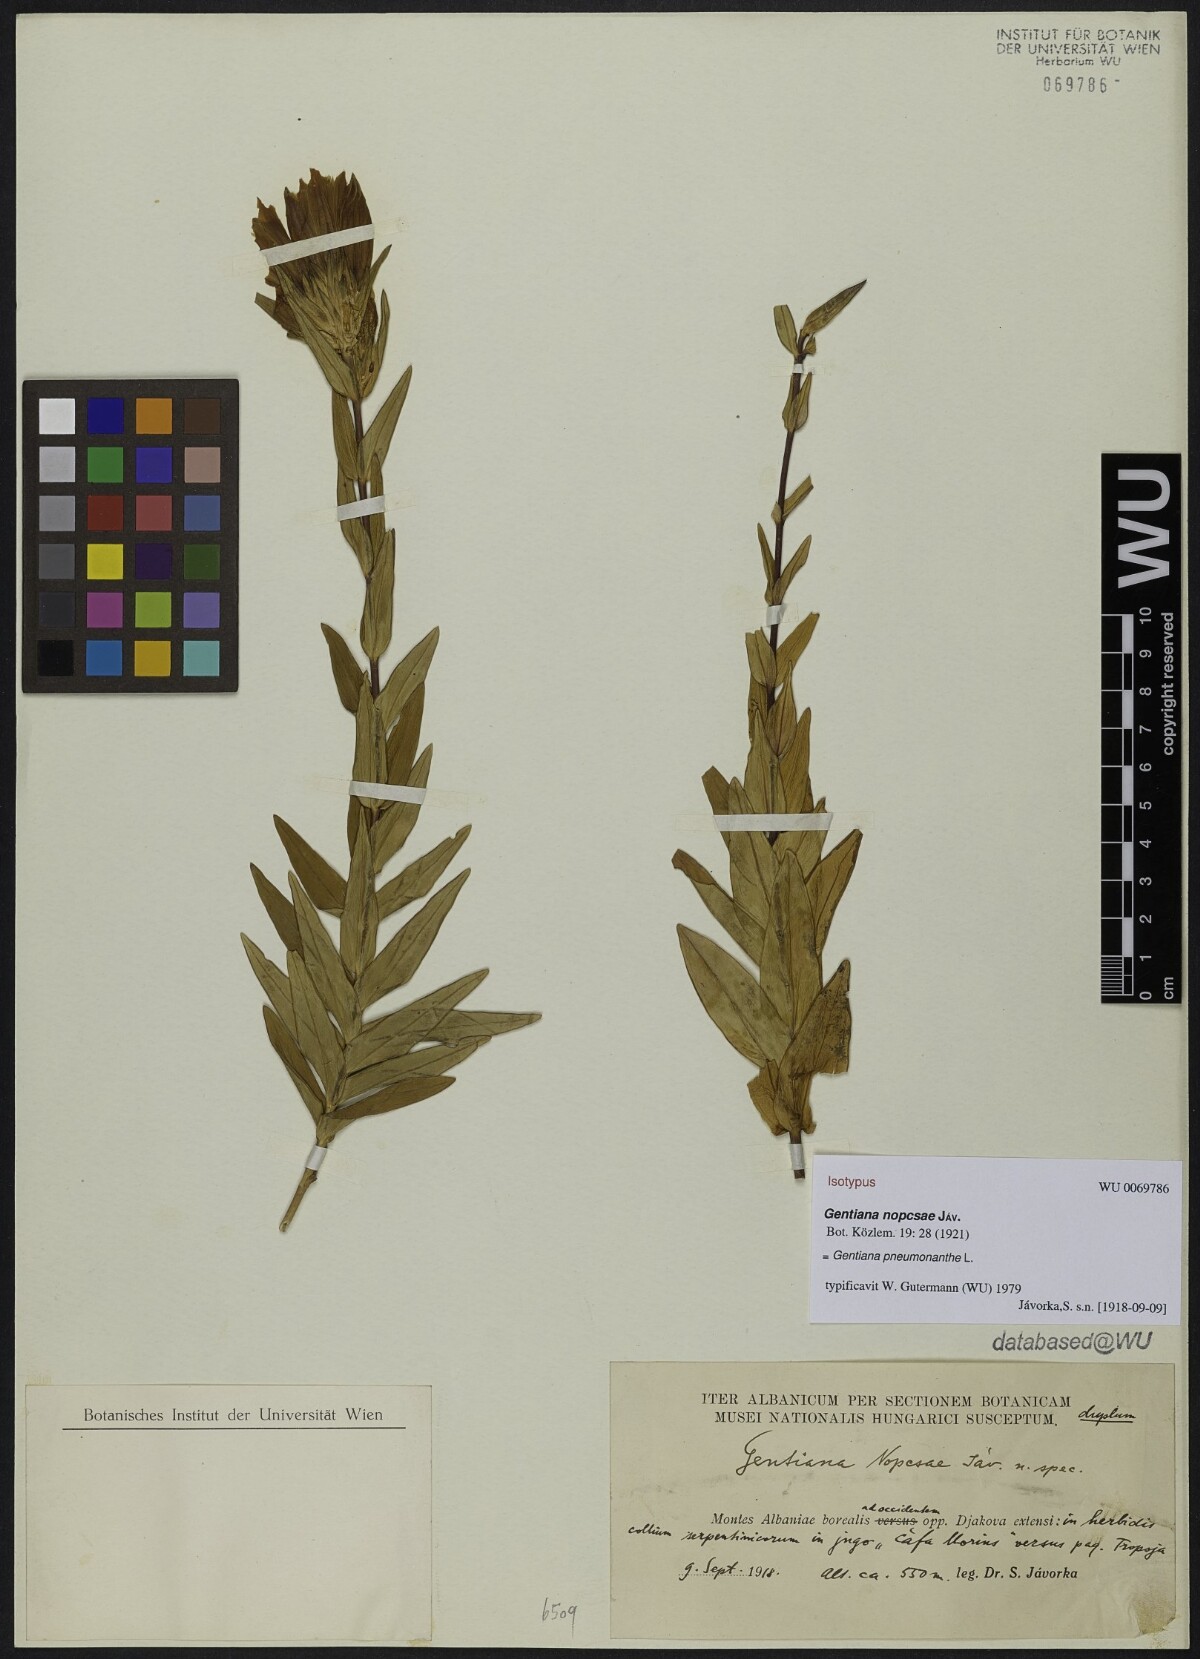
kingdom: Plantae
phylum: Tracheophyta
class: Magnoliopsida
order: Gentianales
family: Gentianaceae
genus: Gentiana
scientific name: Gentiana pneumonanthe
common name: Marsh gentian
